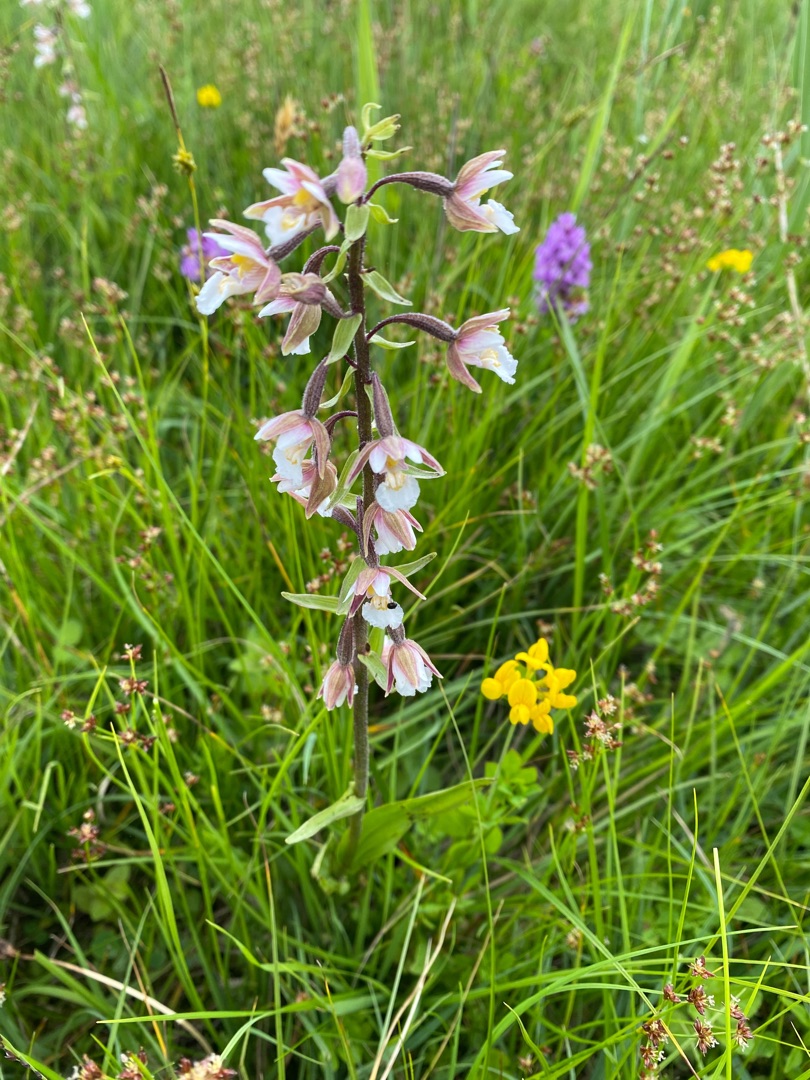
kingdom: Plantae
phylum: Tracheophyta
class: Liliopsida
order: Asparagales
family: Orchidaceae
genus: Epipactis
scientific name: Epipactis palustris
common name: Sump-hullæbe
